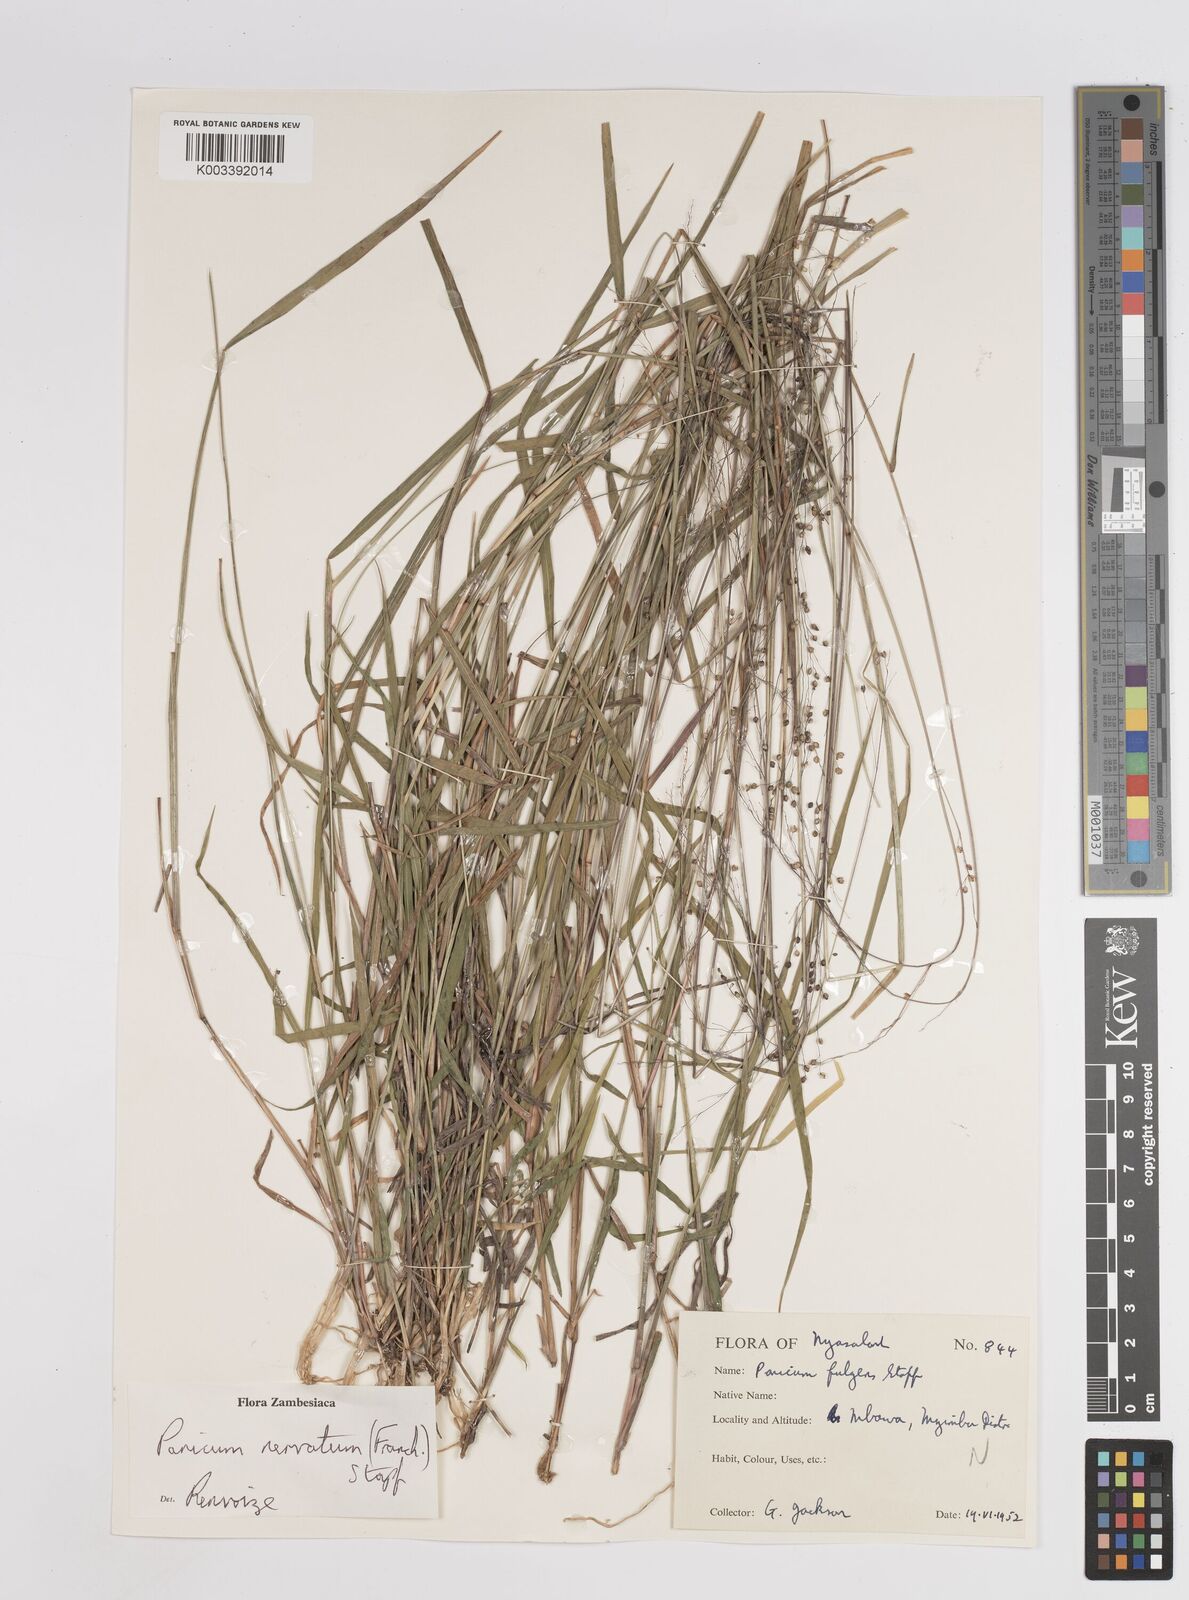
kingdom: Plantae
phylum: Tracheophyta
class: Liliopsida
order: Poales
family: Poaceae
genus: Trichanthecium
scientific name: Trichanthecium nervatum
